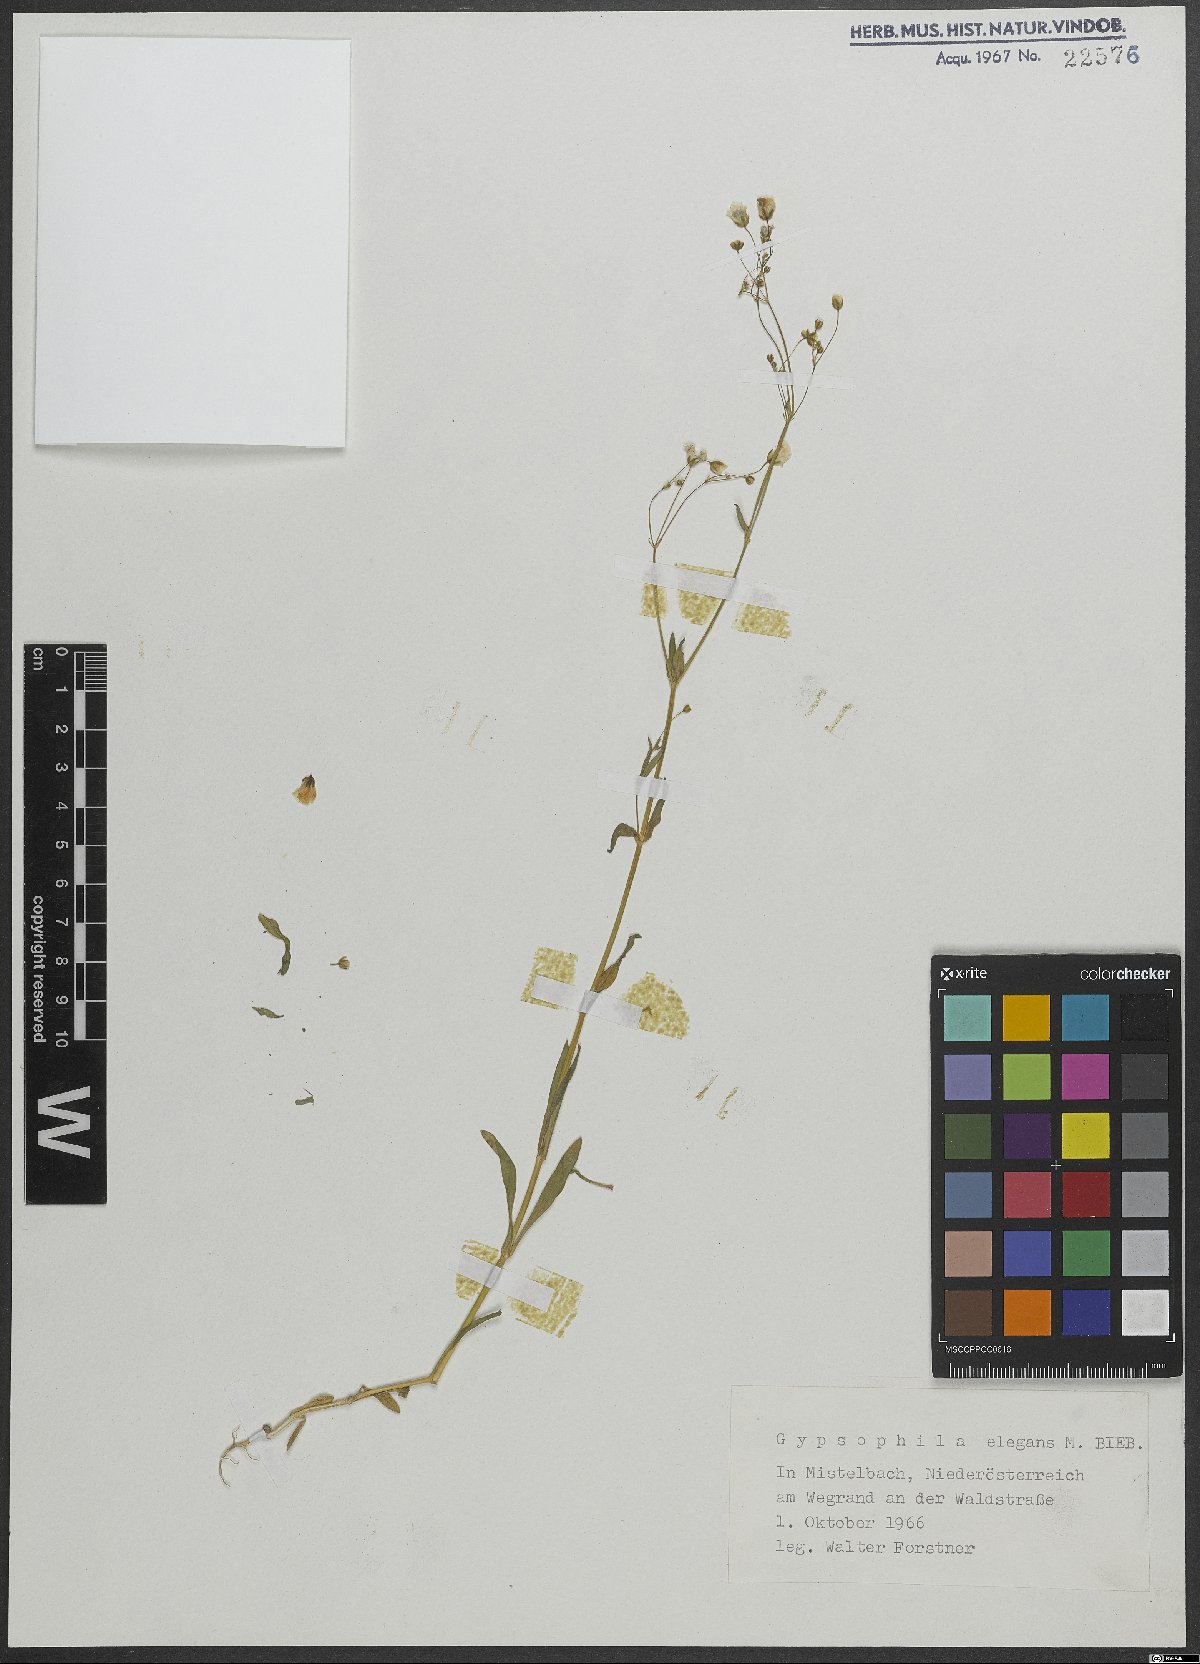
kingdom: Plantae
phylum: Tracheophyta
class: Magnoliopsida
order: Caryophyllales
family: Caryophyllaceae
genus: Gypsophila
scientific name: Gypsophila elegans
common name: Showy baby's-breath
